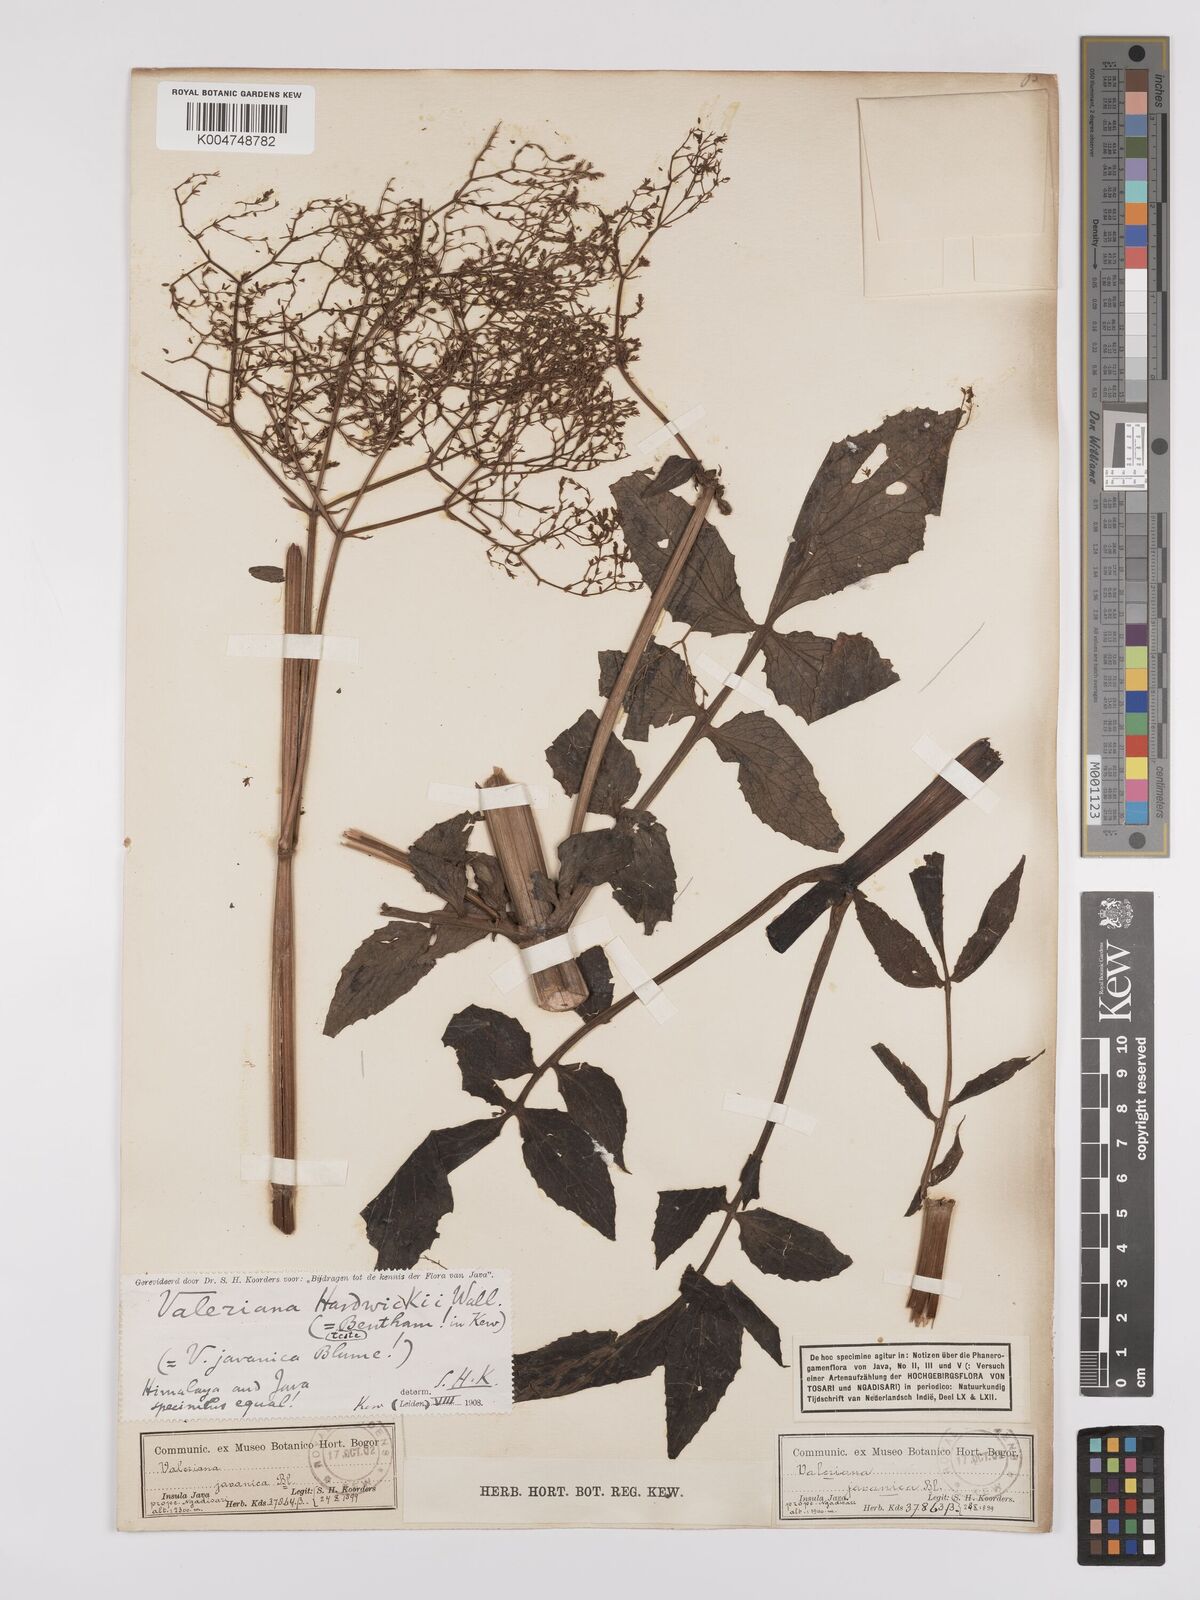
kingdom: Plantae
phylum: Tracheophyta
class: Magnoliopsida
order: Dipsacales
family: Caprifoliaceae
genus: Valeriana
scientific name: Valeriana hardwickei
